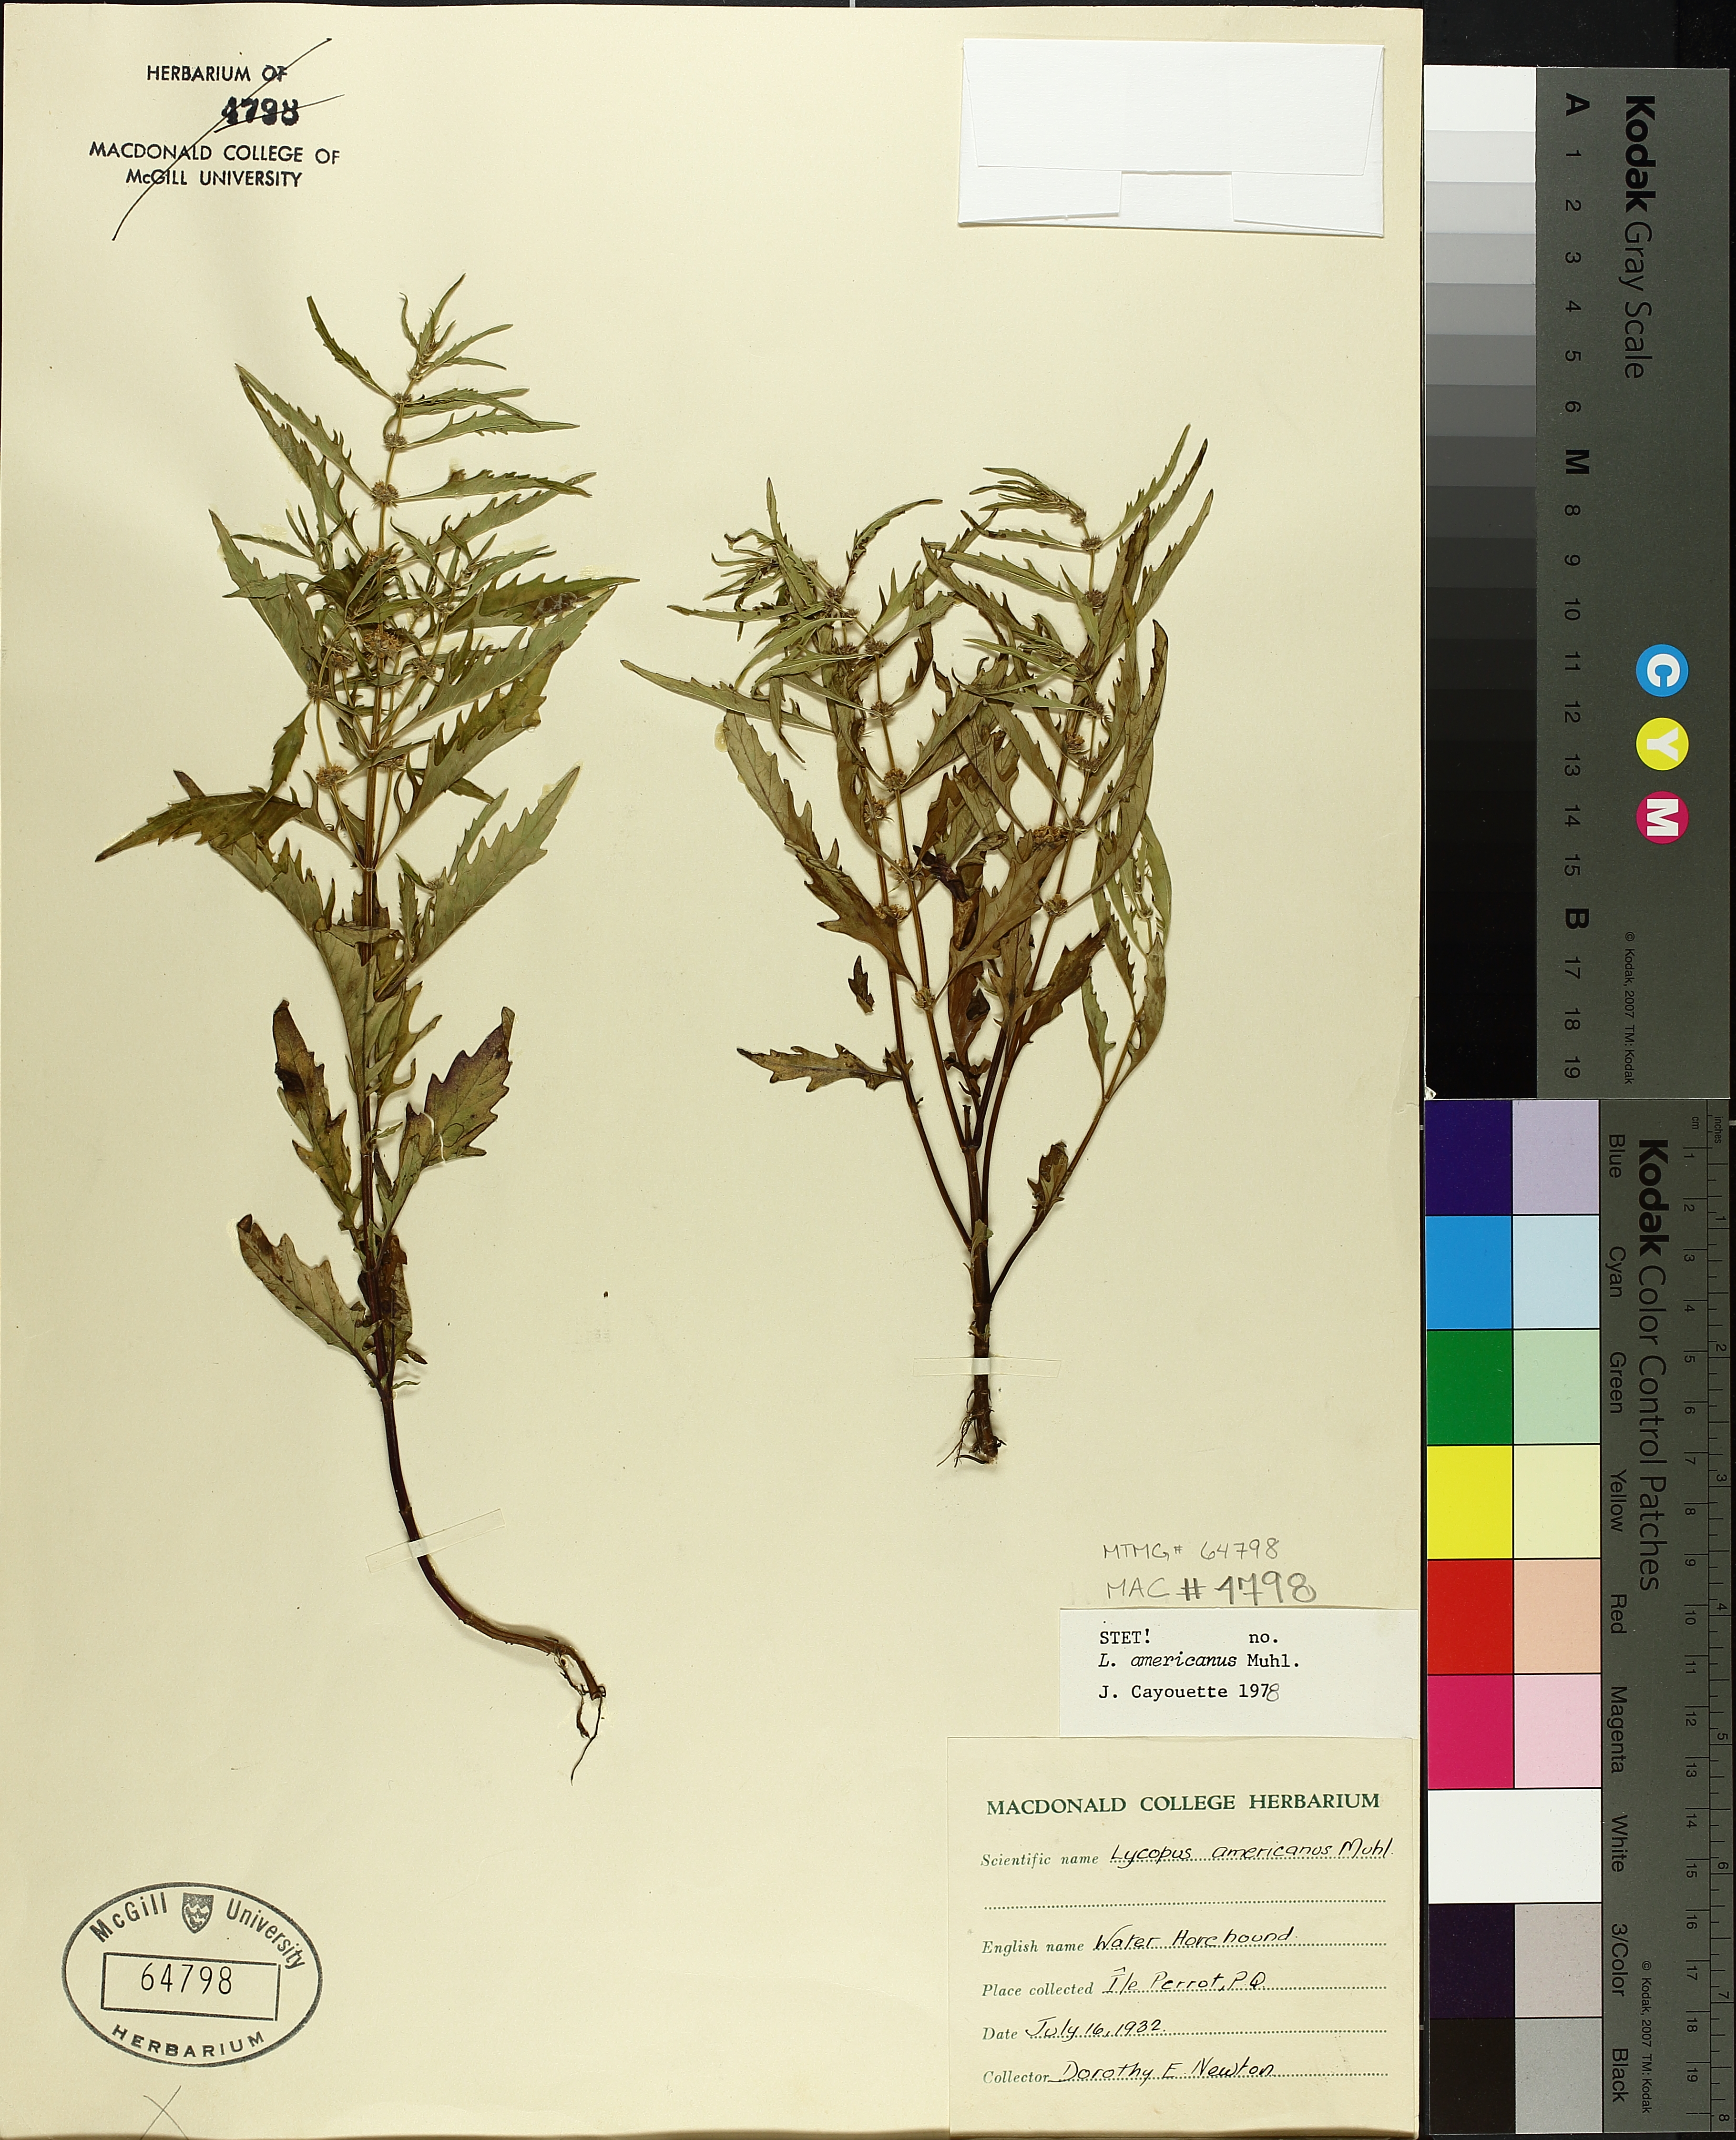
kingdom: Plantae
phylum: Tracheophyta
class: Magnoliopsida
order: Lamiales
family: Lamiaceae
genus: Lycopus
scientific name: Lycopus americanus
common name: American bugleweed
